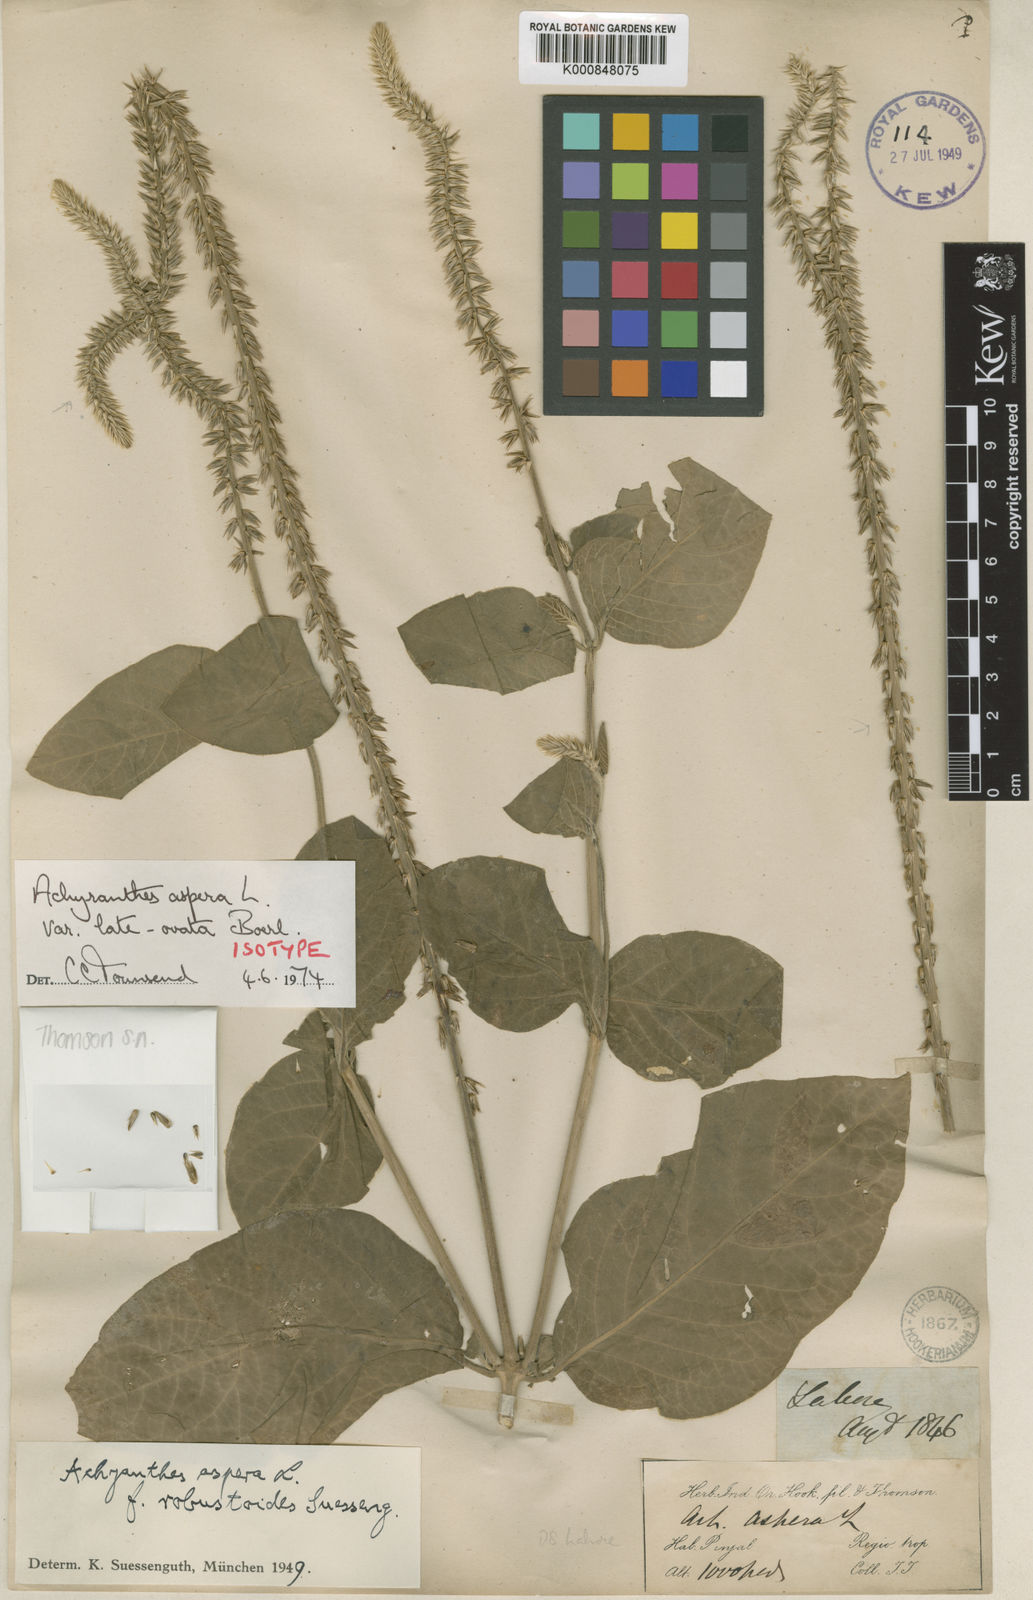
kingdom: Plantae
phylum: Tracheophyta
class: Magnoliopsida
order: Caryophyllales
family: Amaranthaceae
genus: Achyranthes
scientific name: Achyranthes aspera
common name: Devil's horsewhip
